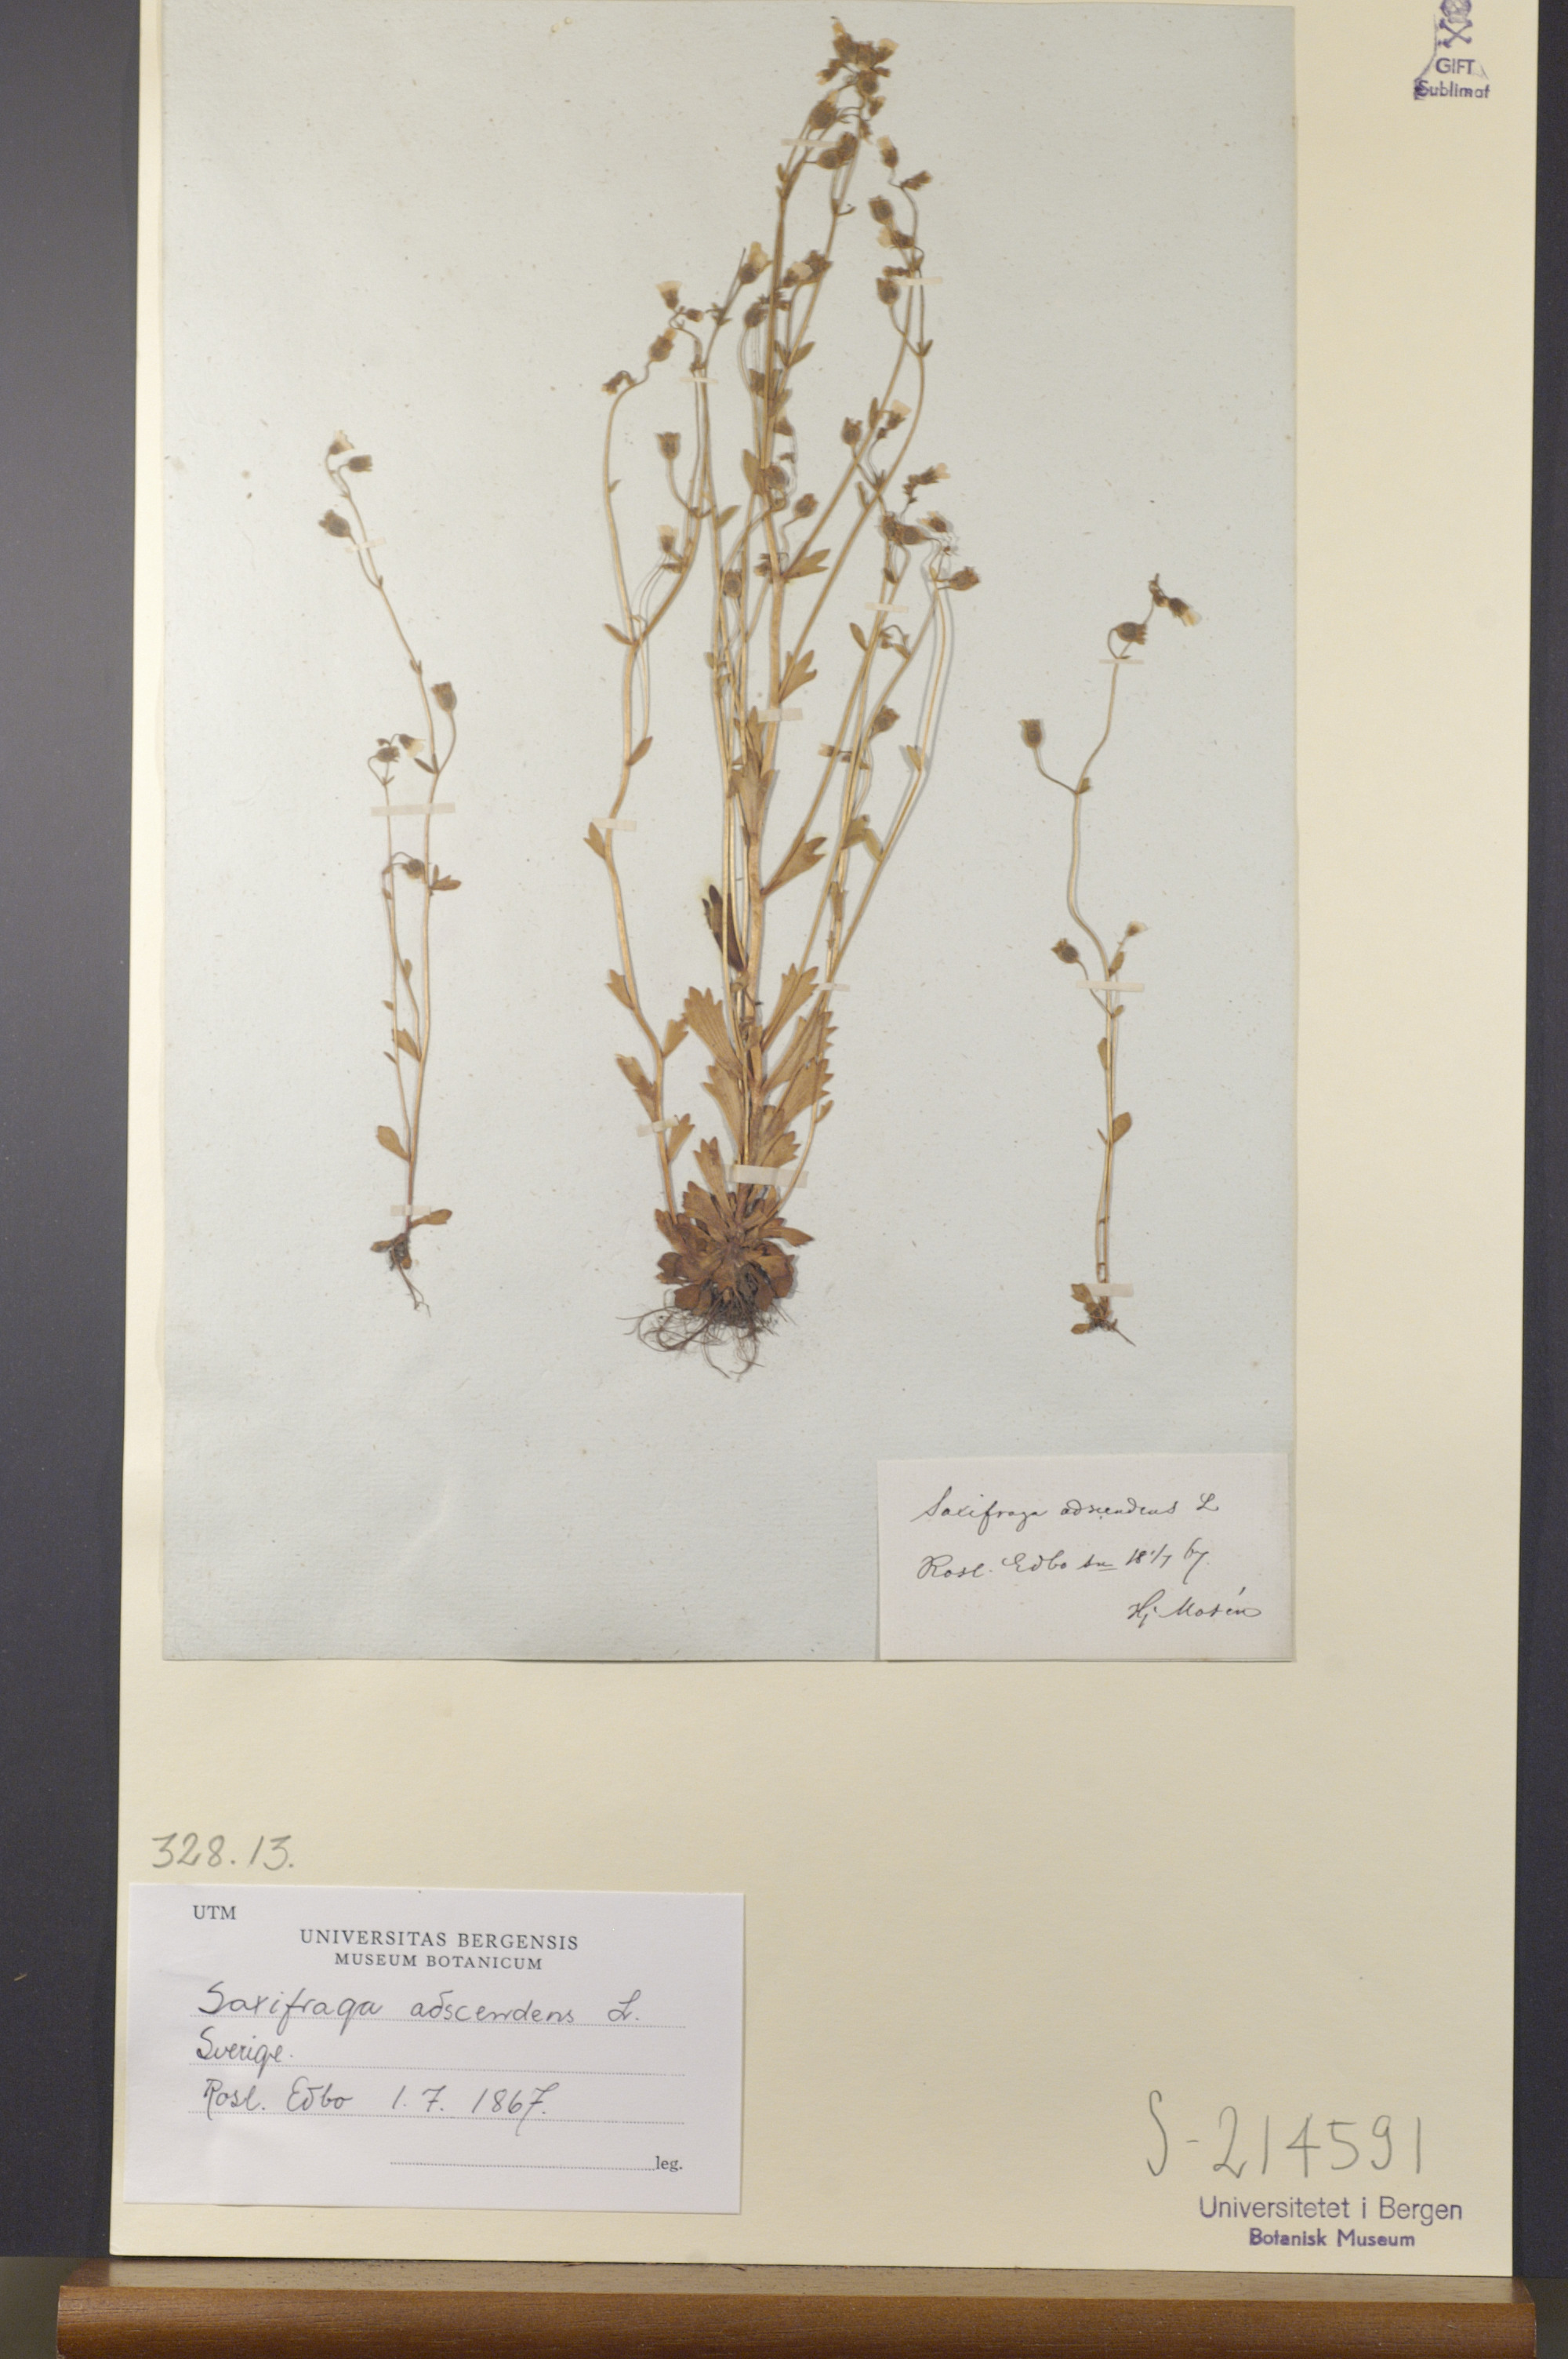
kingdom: Plantae
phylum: Tracheophyta
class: Magnoliopsida
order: Saxifragales
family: Saxifragaceae
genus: Saxifraga
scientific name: Saxifraga adscendens
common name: Ascending saxifrage
